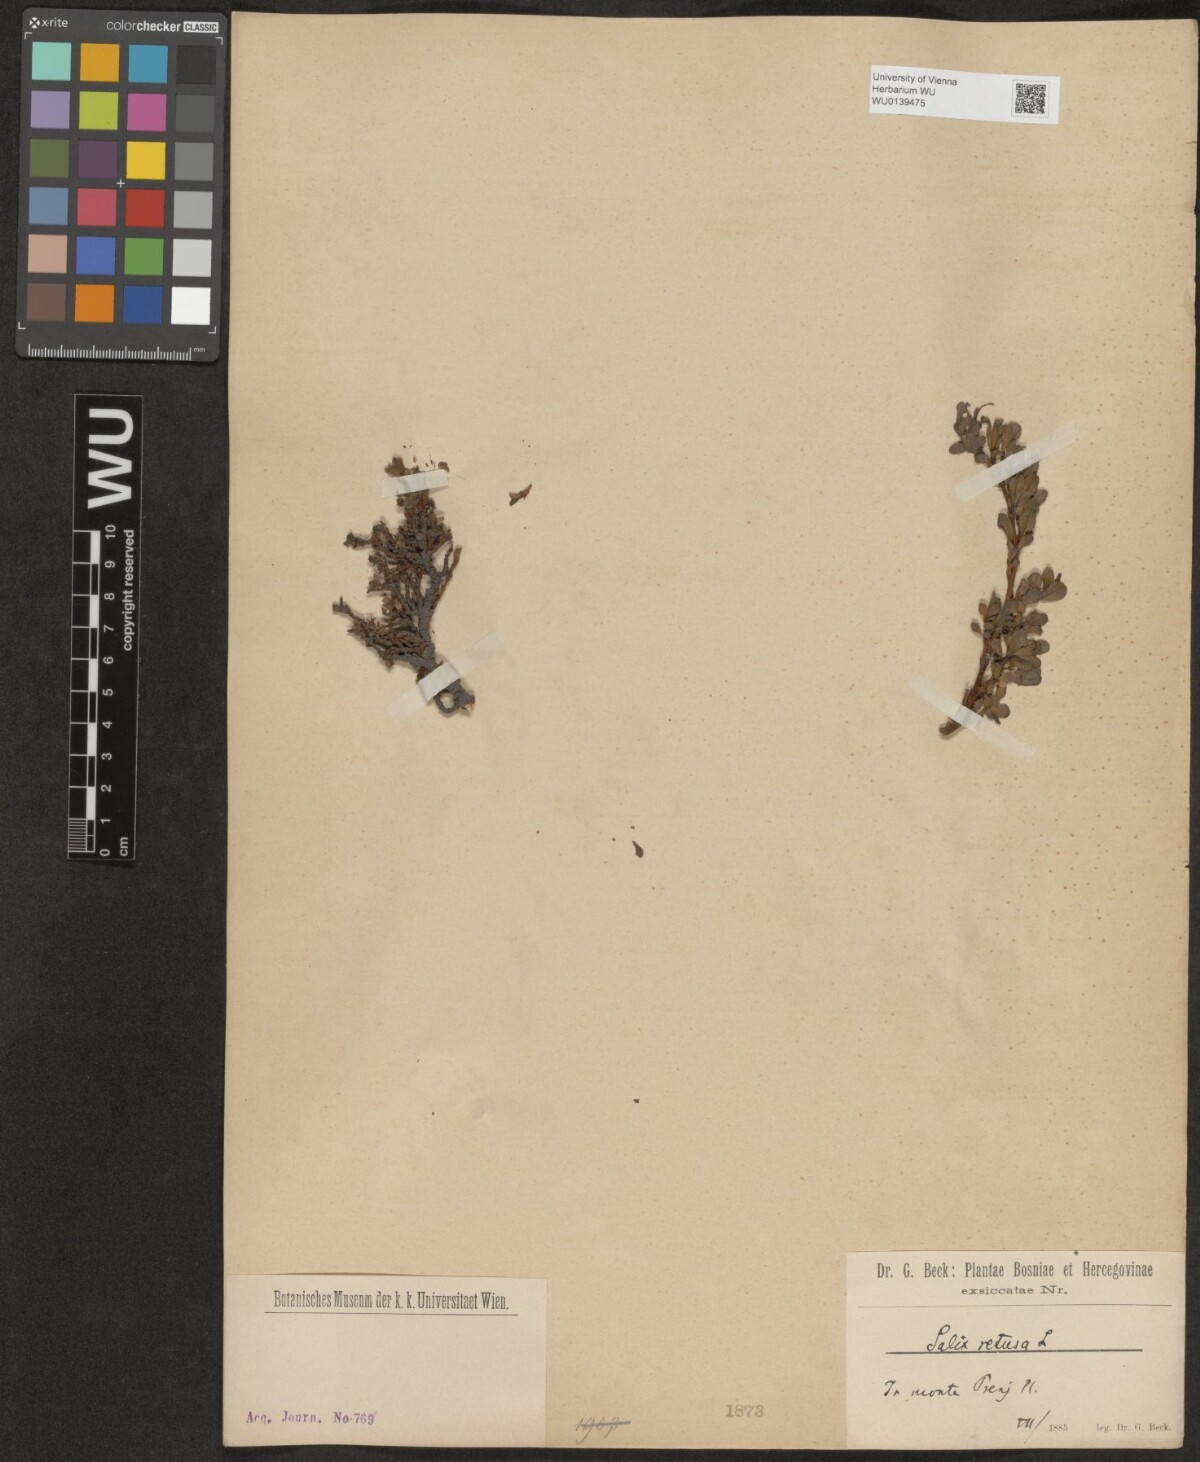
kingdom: Plantae
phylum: Tracheophyta
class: Magnoliopsida
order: Malpighiales
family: Salicaceae
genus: Salix
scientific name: Salix retusa
